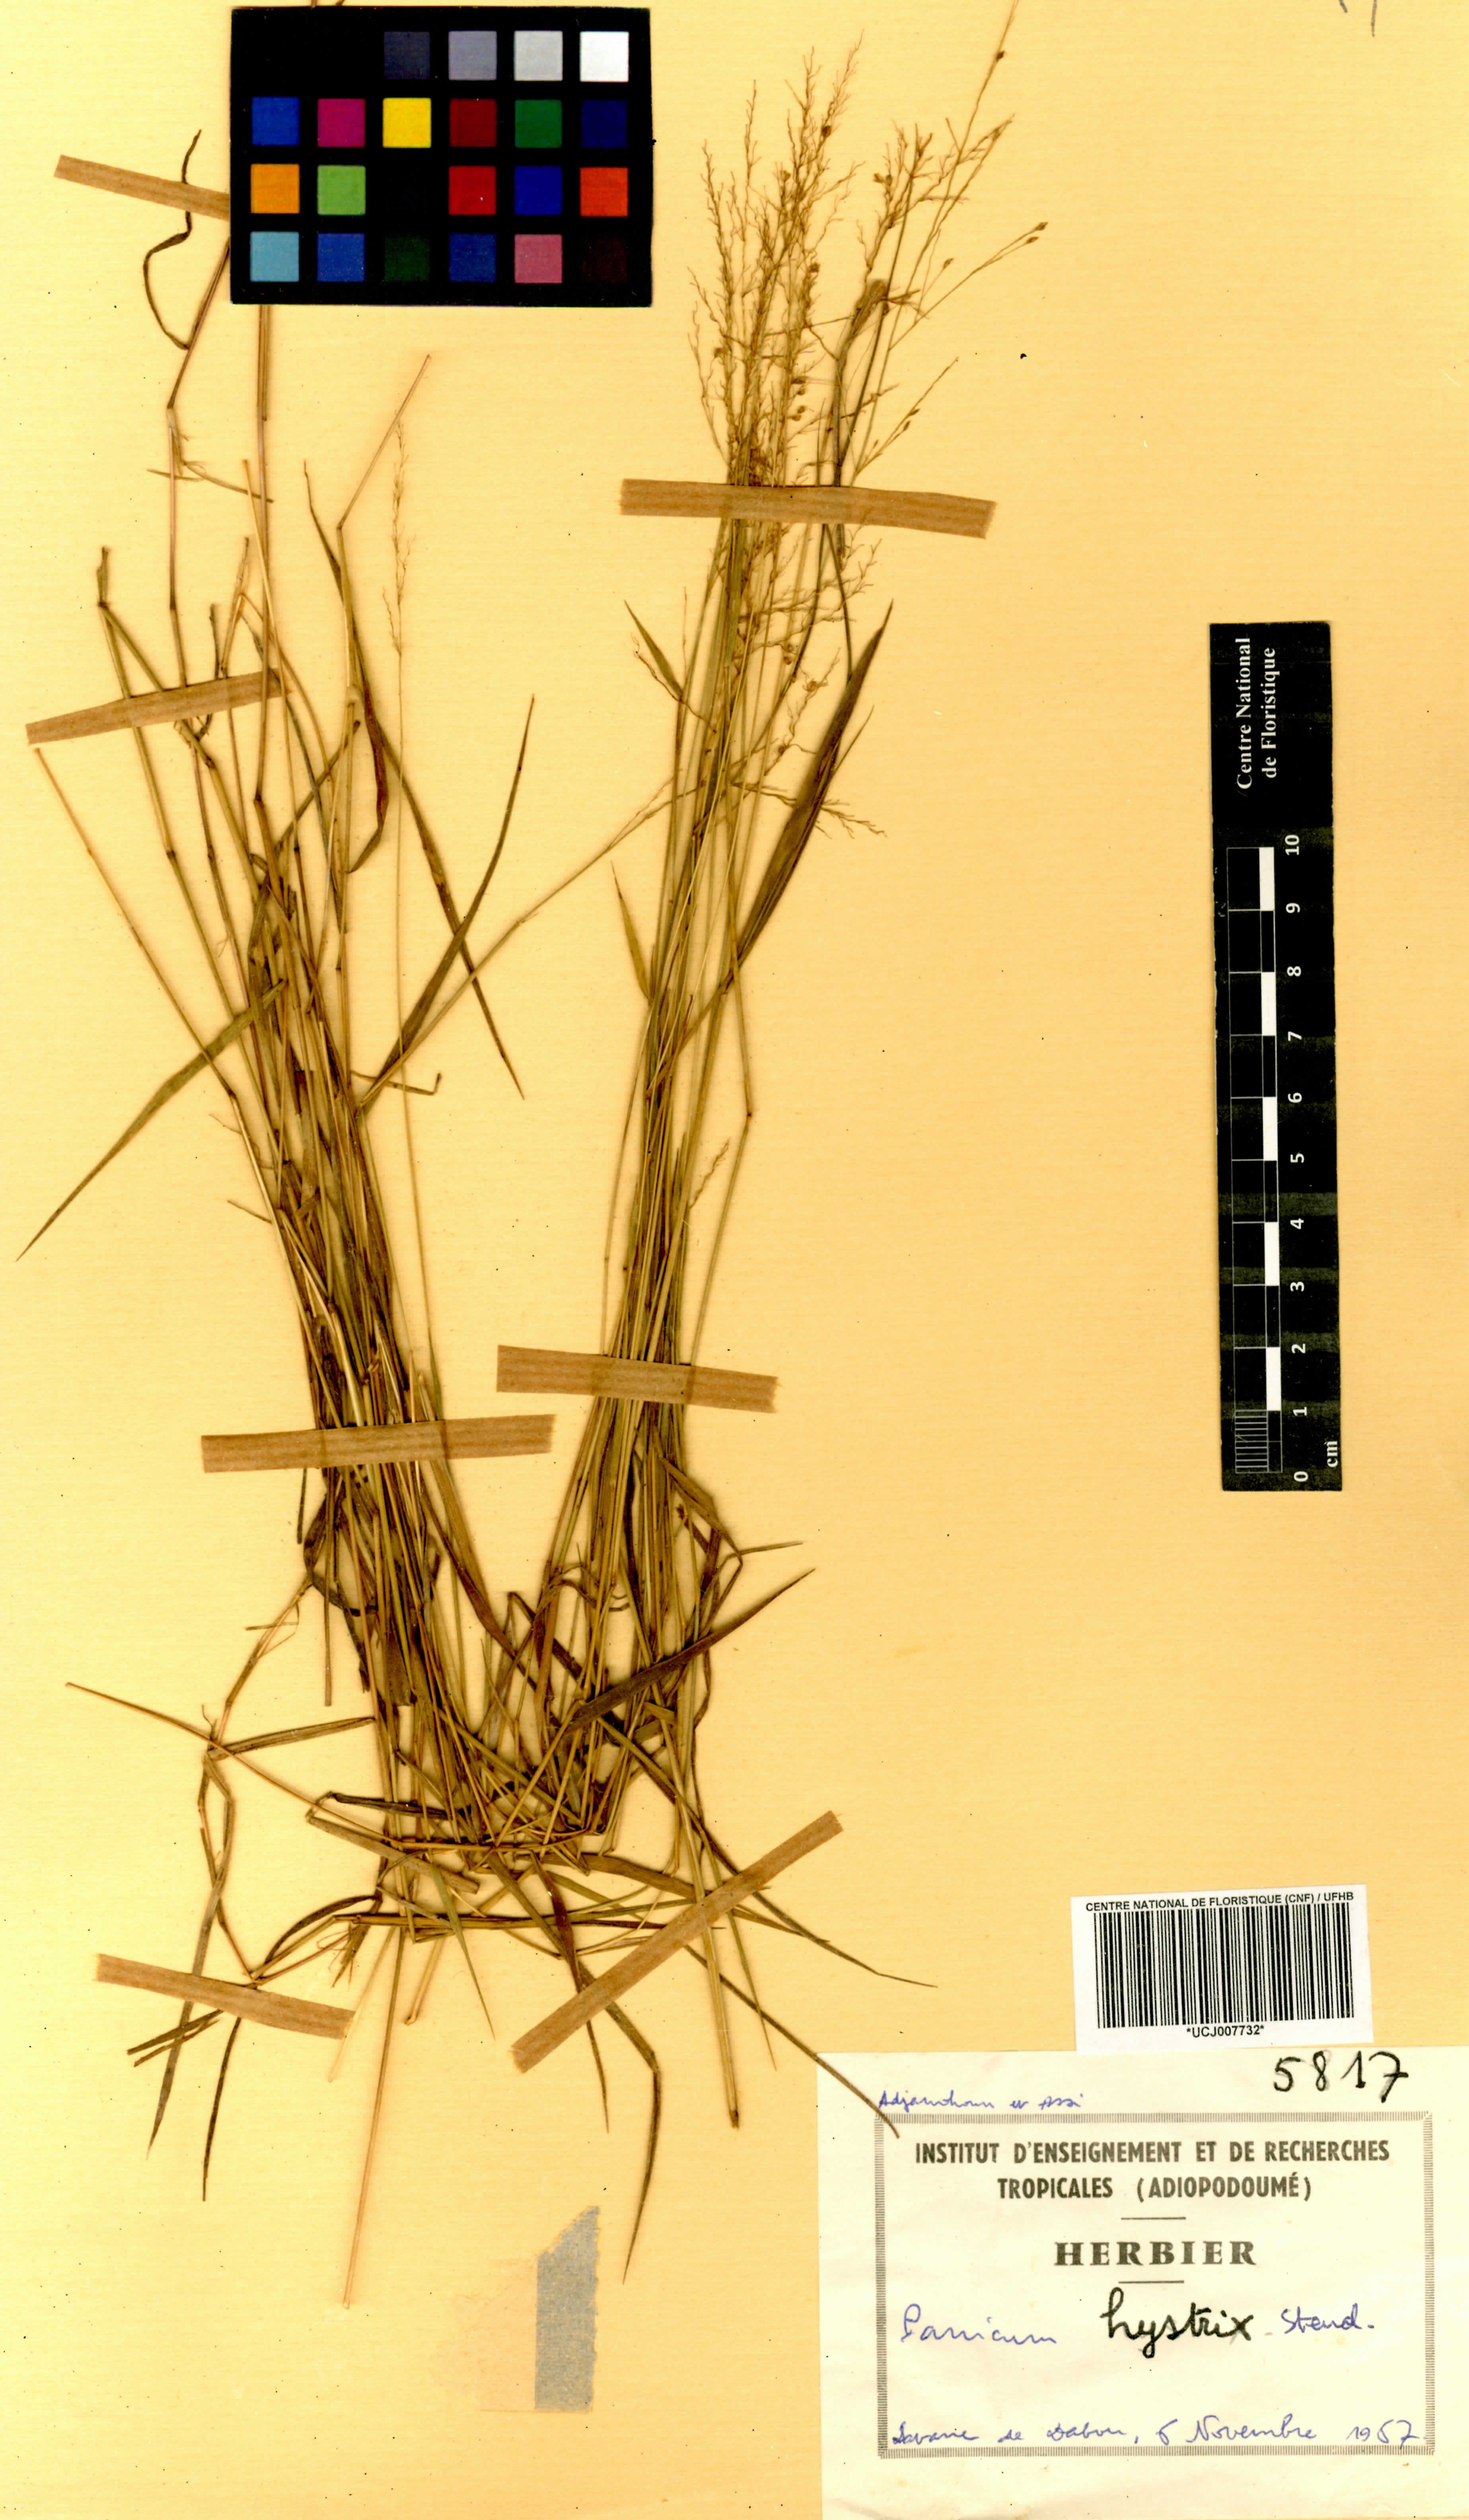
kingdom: Plantae
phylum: Tracheophyta
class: Liliopsida
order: Poales
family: Poaceae
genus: Trichanthecium
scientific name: Trichanthecium tenellum
